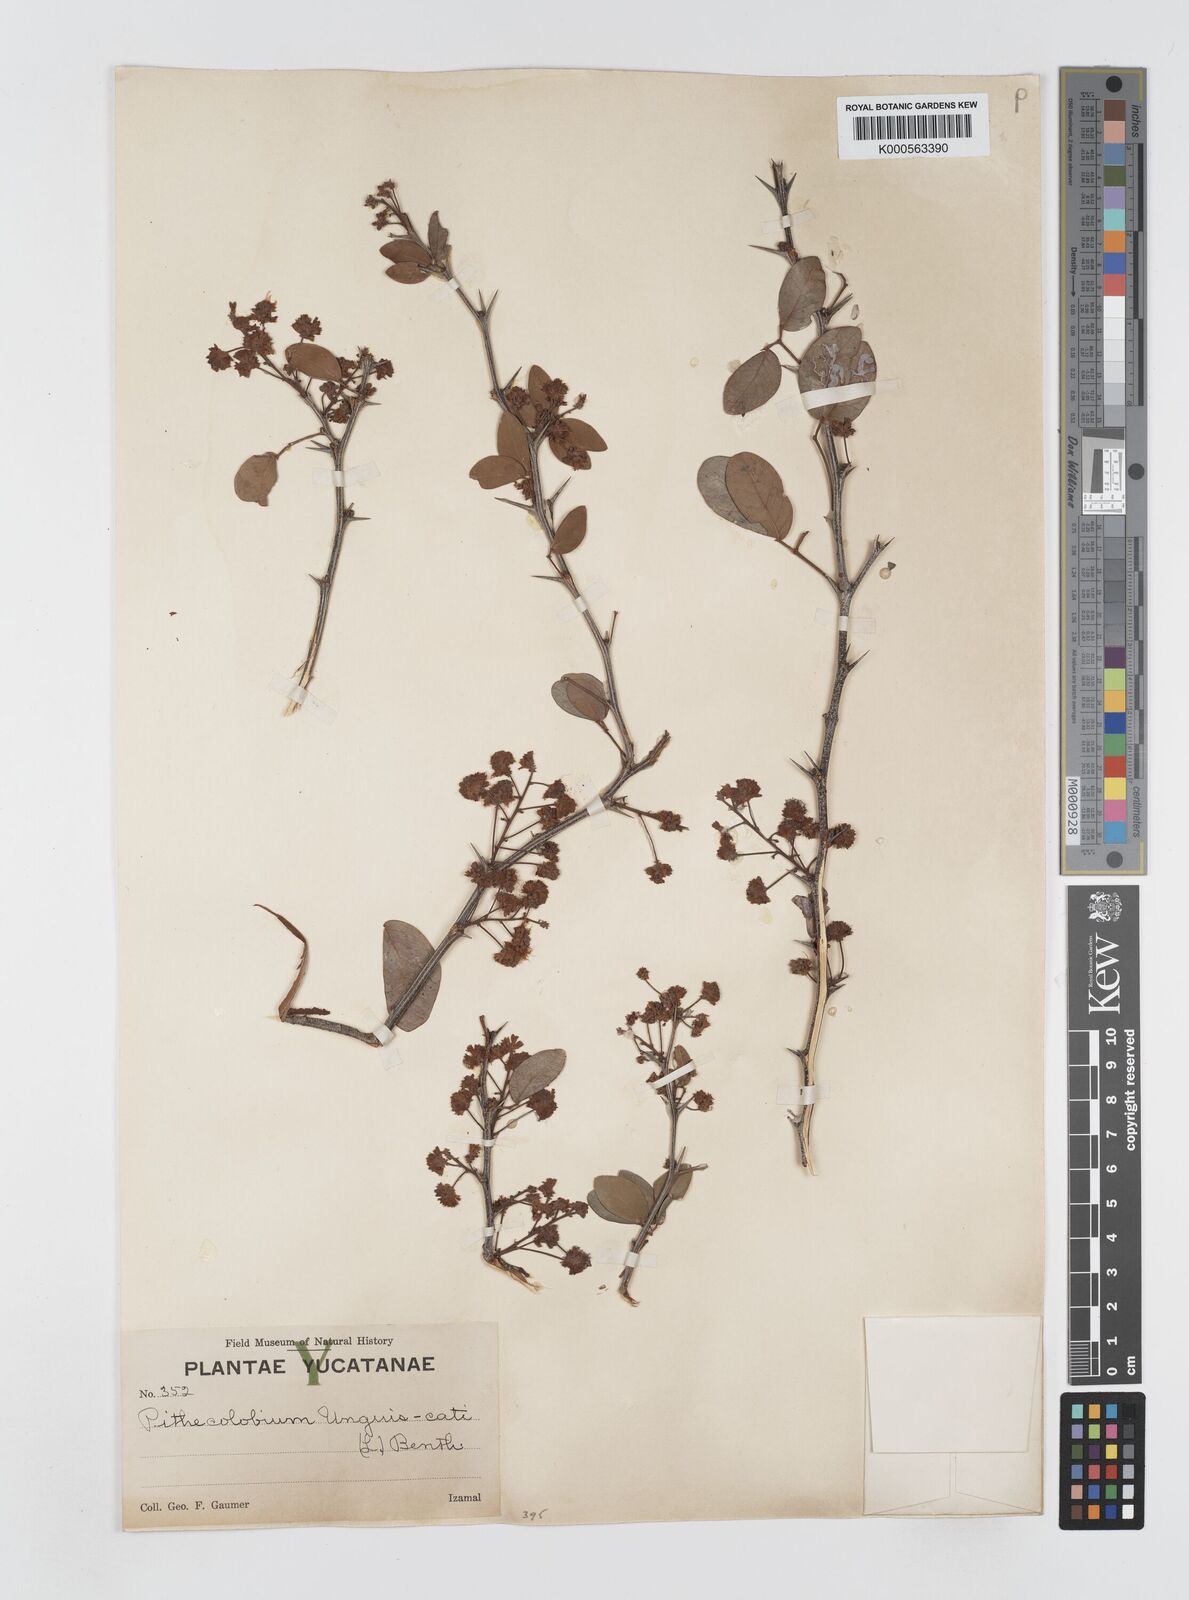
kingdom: Plantae
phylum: Tracheophyta
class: Magnoliopsida
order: Fabales
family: Fabaceae
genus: Pithecellobium
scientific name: Pithecellobium unguis-cati
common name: Cat's-claw
